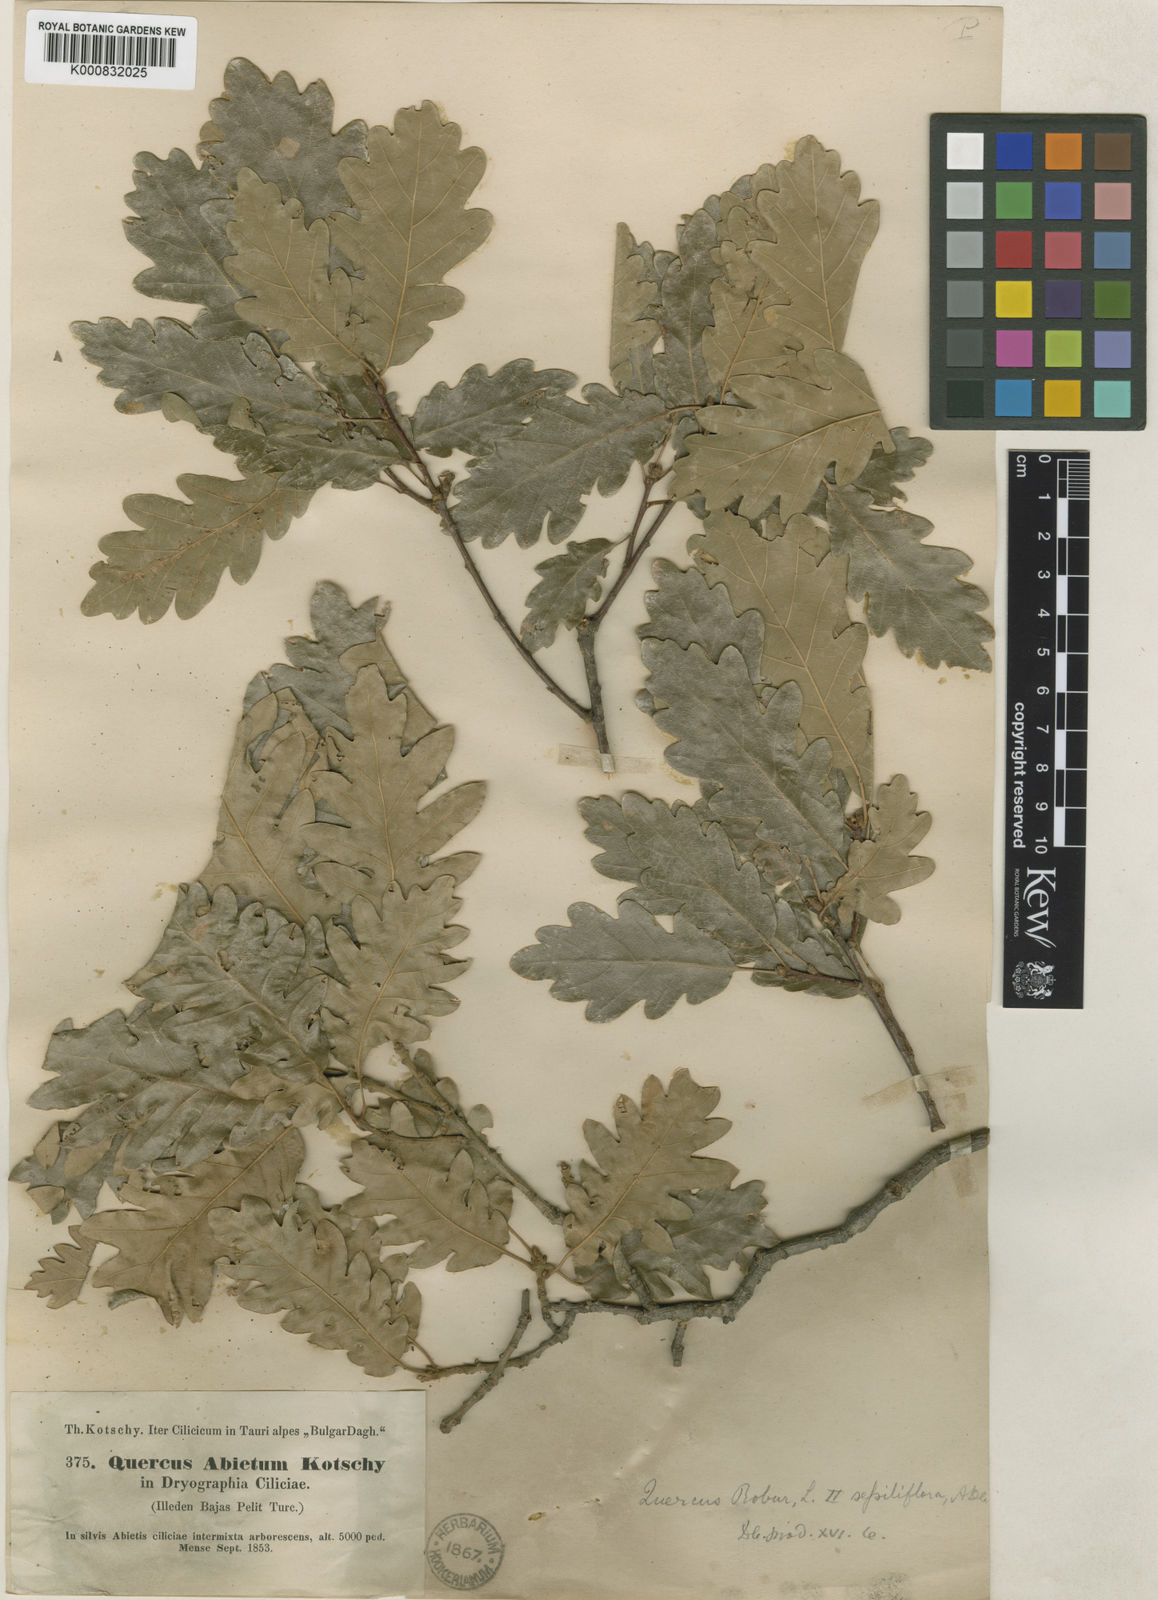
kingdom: Plantae
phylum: Tracheophyta
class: Magnoliopsida
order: Fagales
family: Fagaceae
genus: Quercus
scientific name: Quercus petraea
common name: Sessile oak
